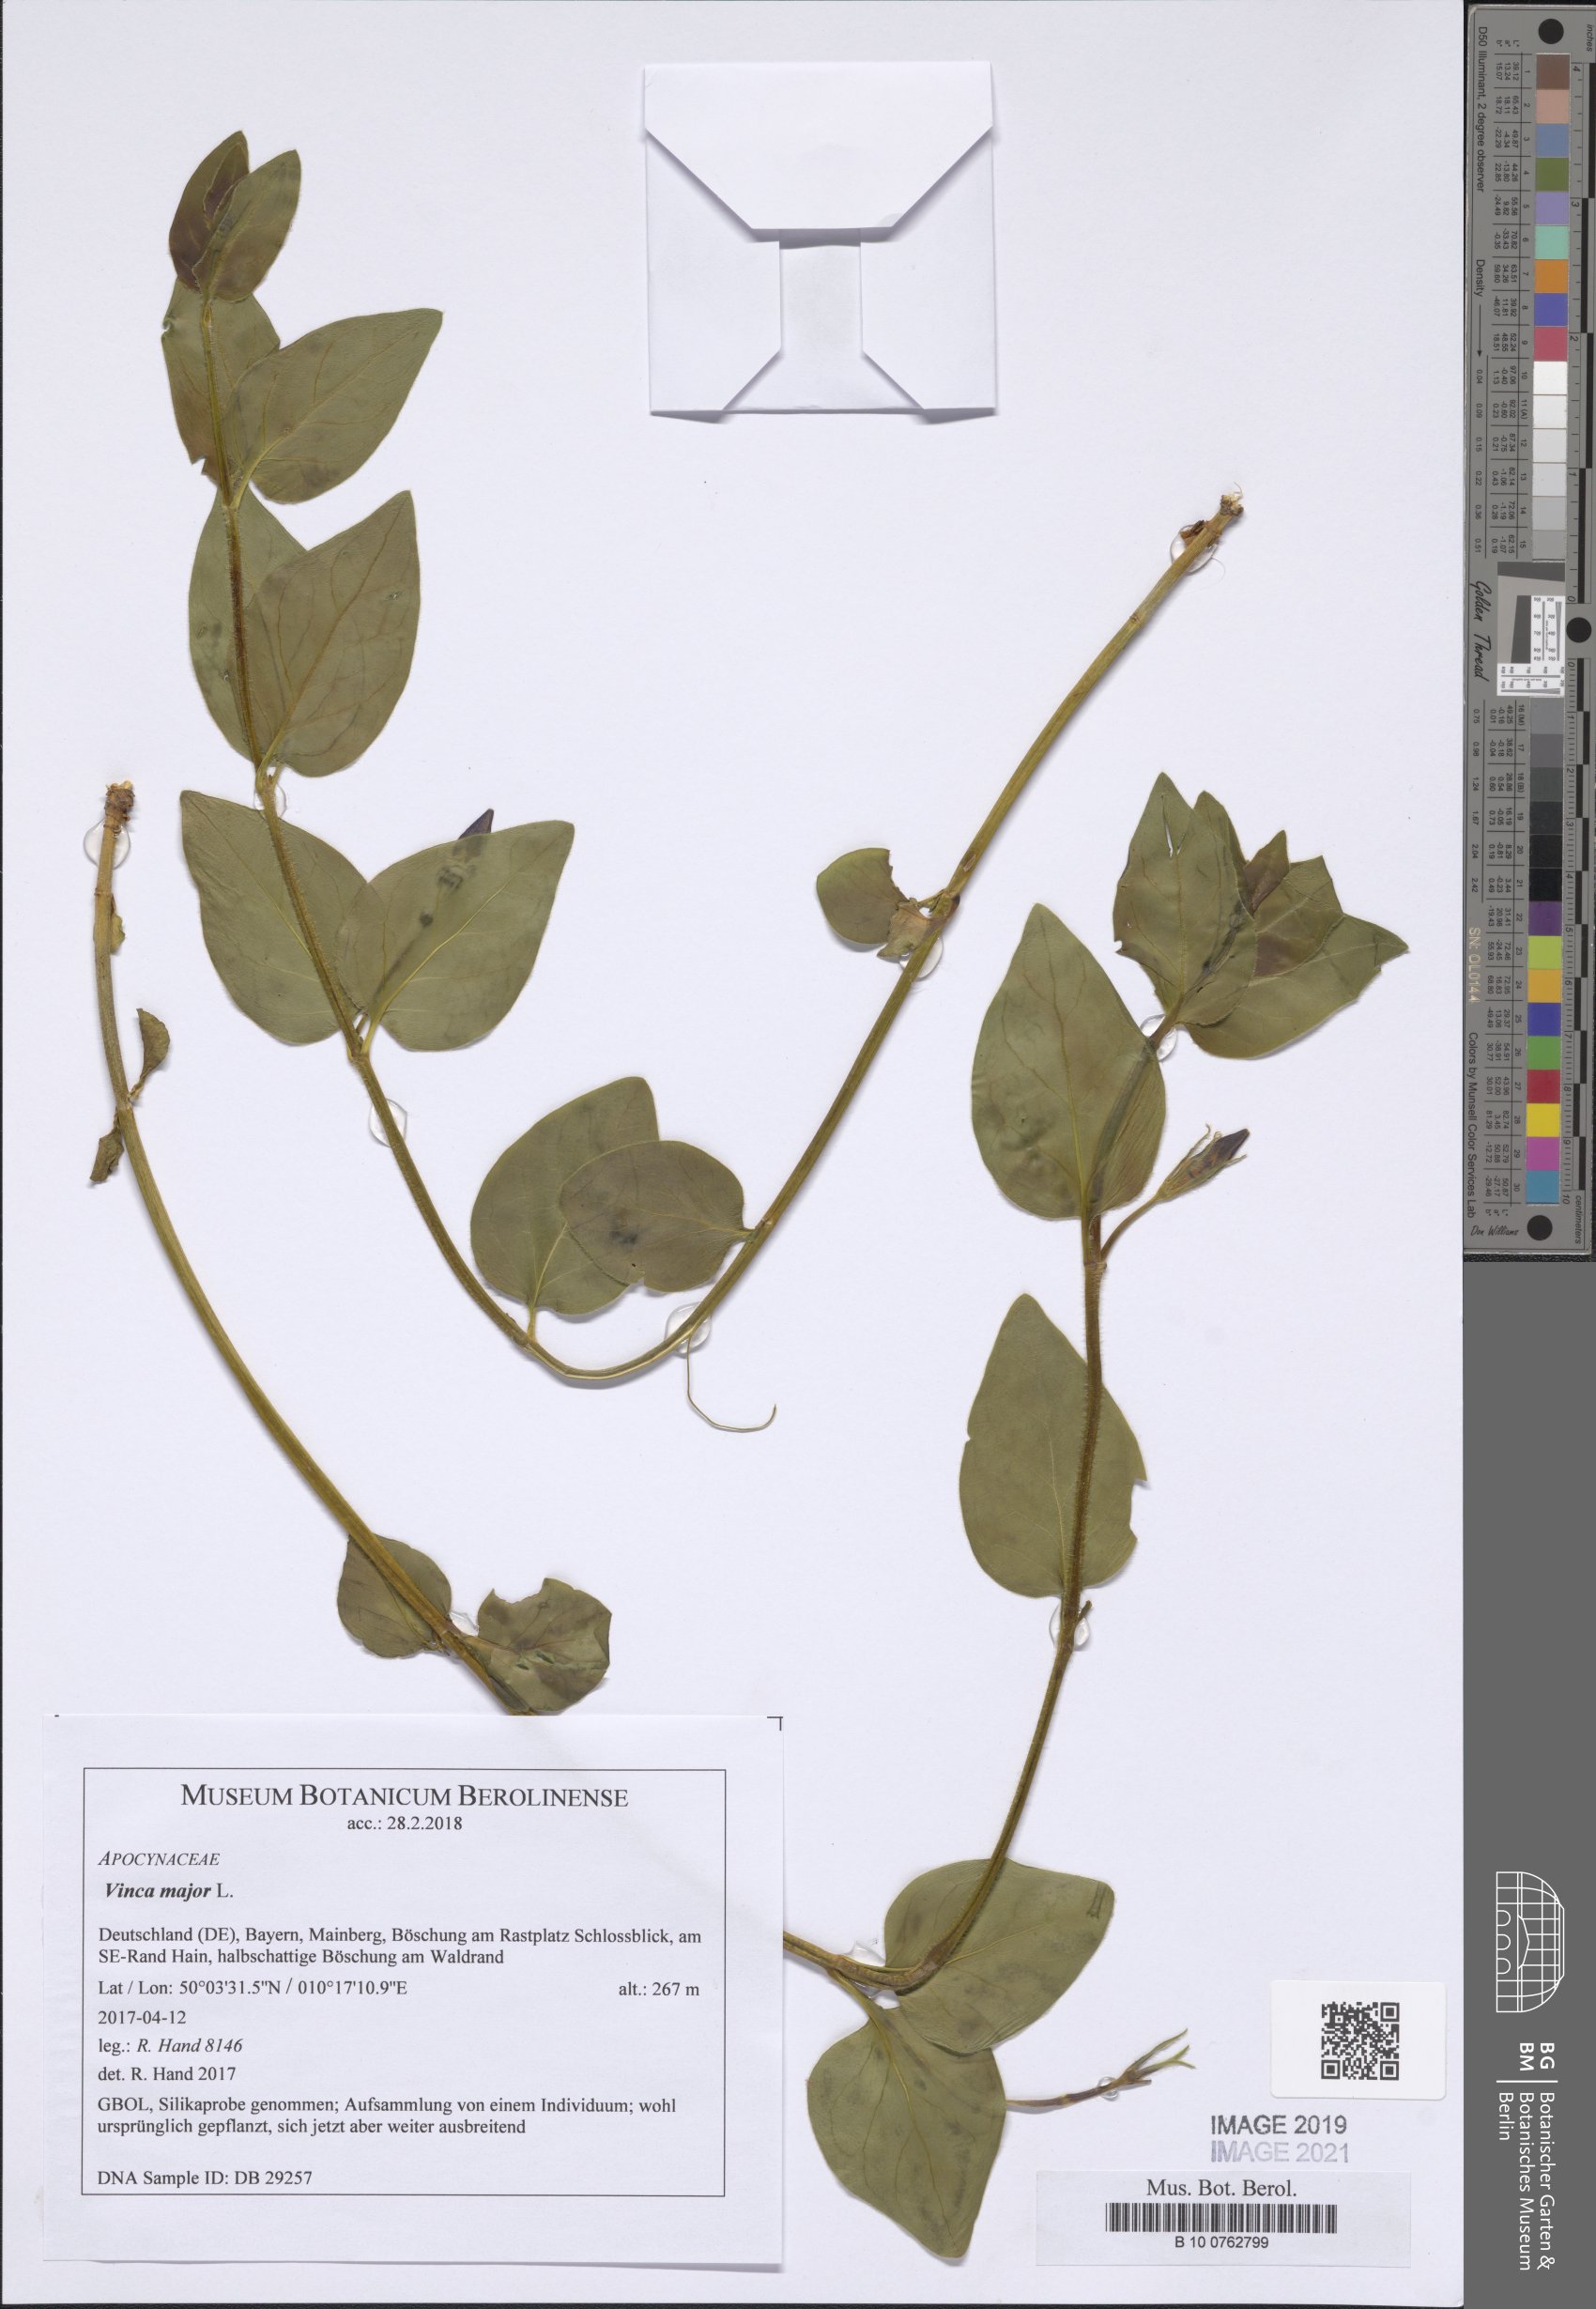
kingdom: Plantae
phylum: Tracheophyta
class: Magnoliopsida
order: Gentianales
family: Apocynaceae
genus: Vinca
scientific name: Vinca major
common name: Greater periwinkle
